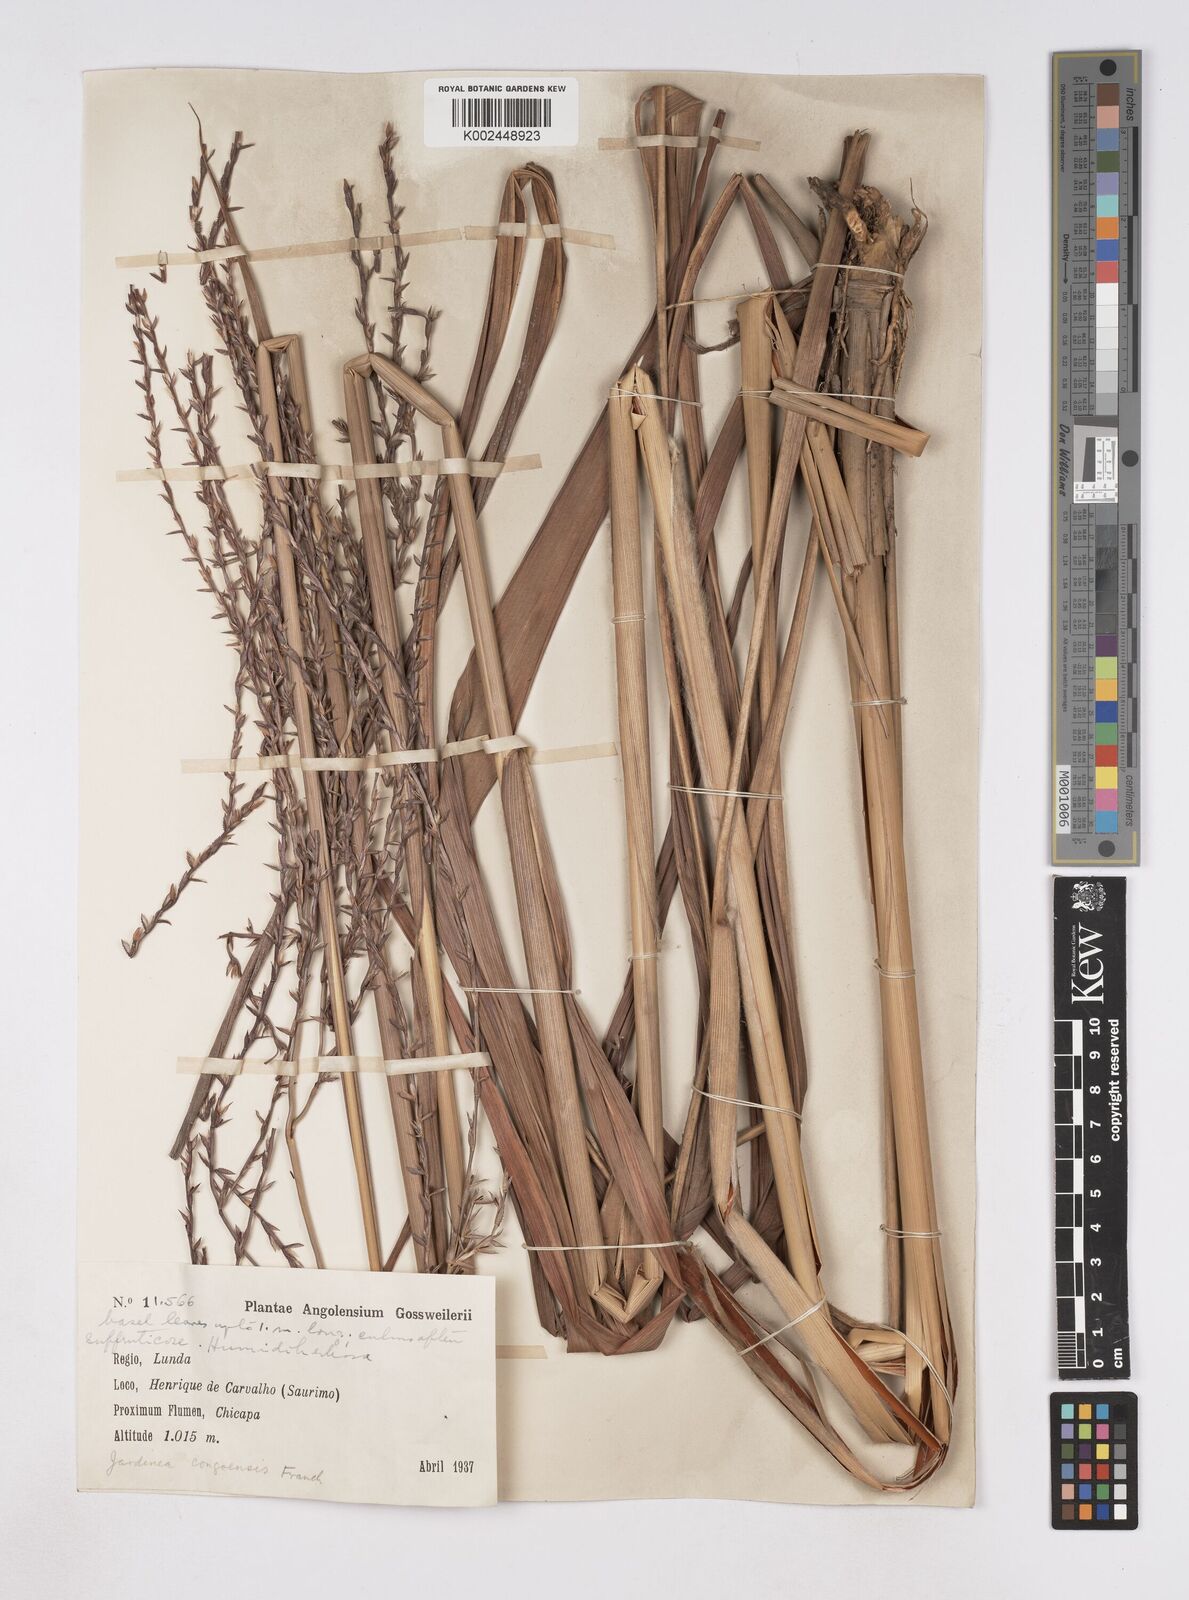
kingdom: Plantae
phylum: Tracheophyta
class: Liliopsida
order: Poales
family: Poaceae
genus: Phacelurus
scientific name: Phacelurus gabonensis
